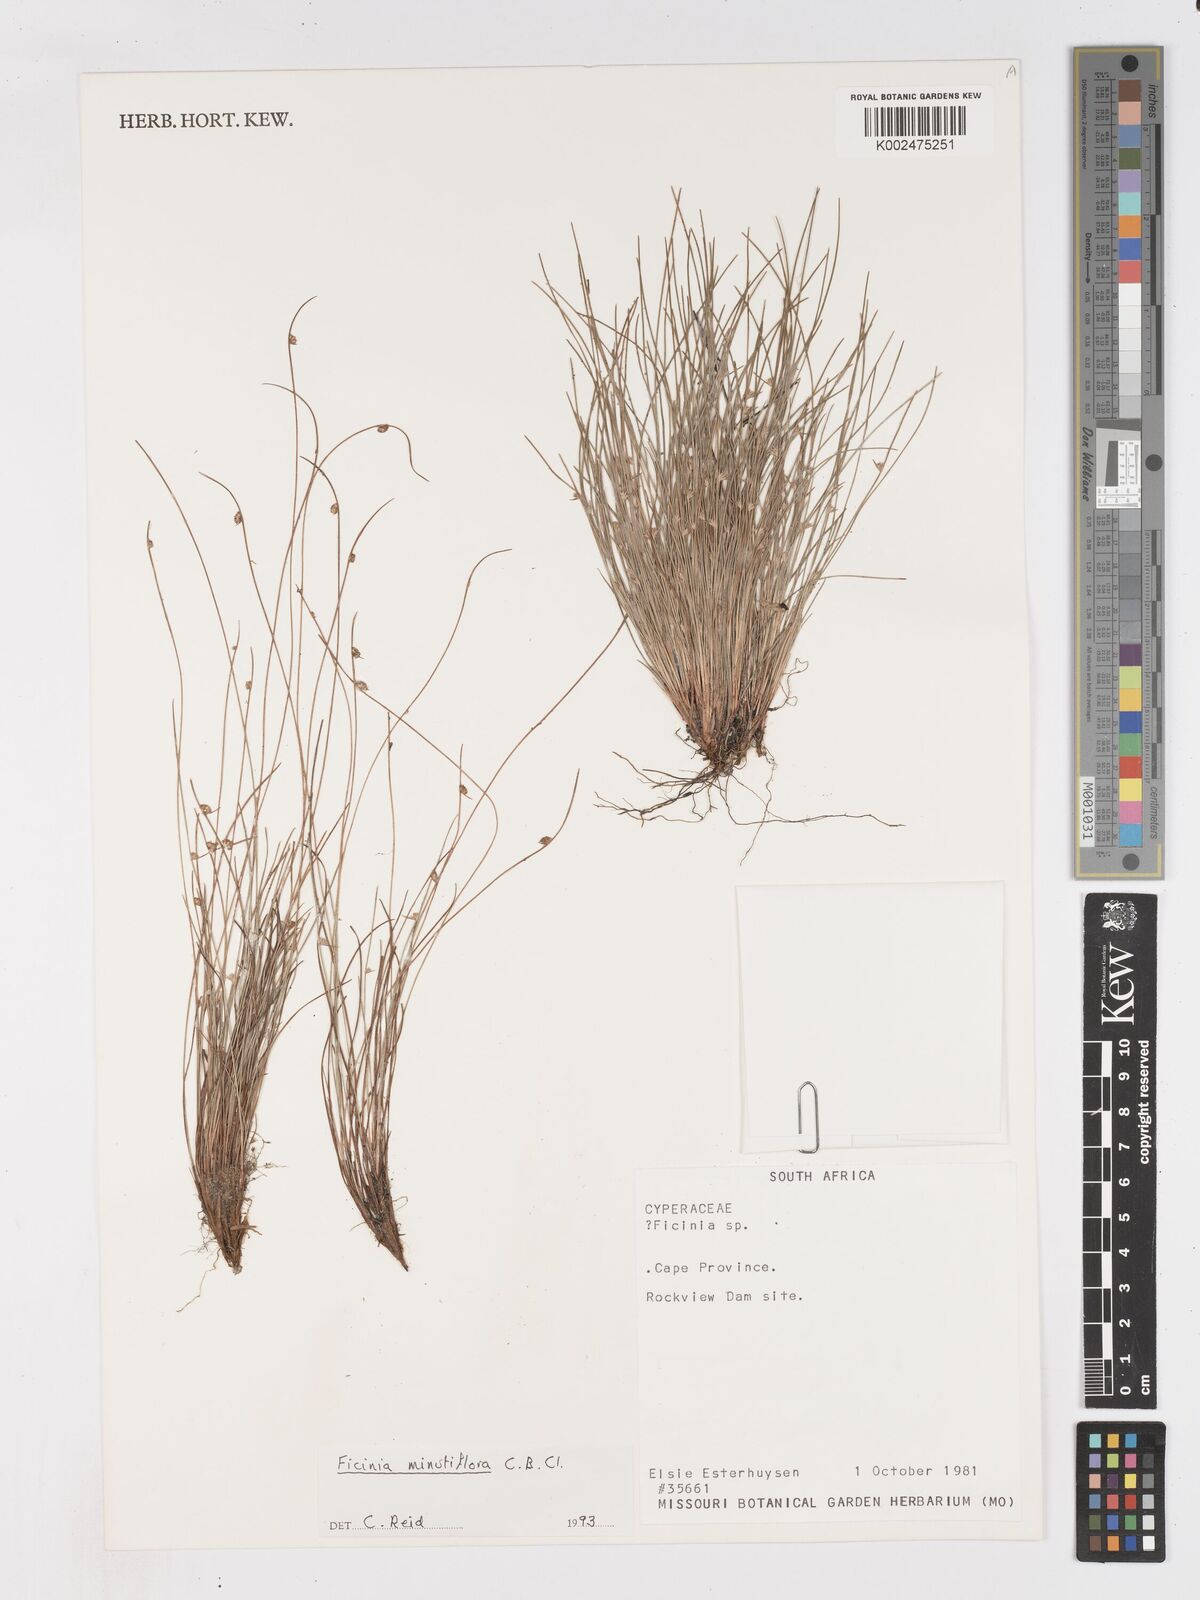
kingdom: Plantae
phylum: Tracheophyta
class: Liliopsida
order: Poales
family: Cyperaceae
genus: Ficinia
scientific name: Ficinia minutiflora
